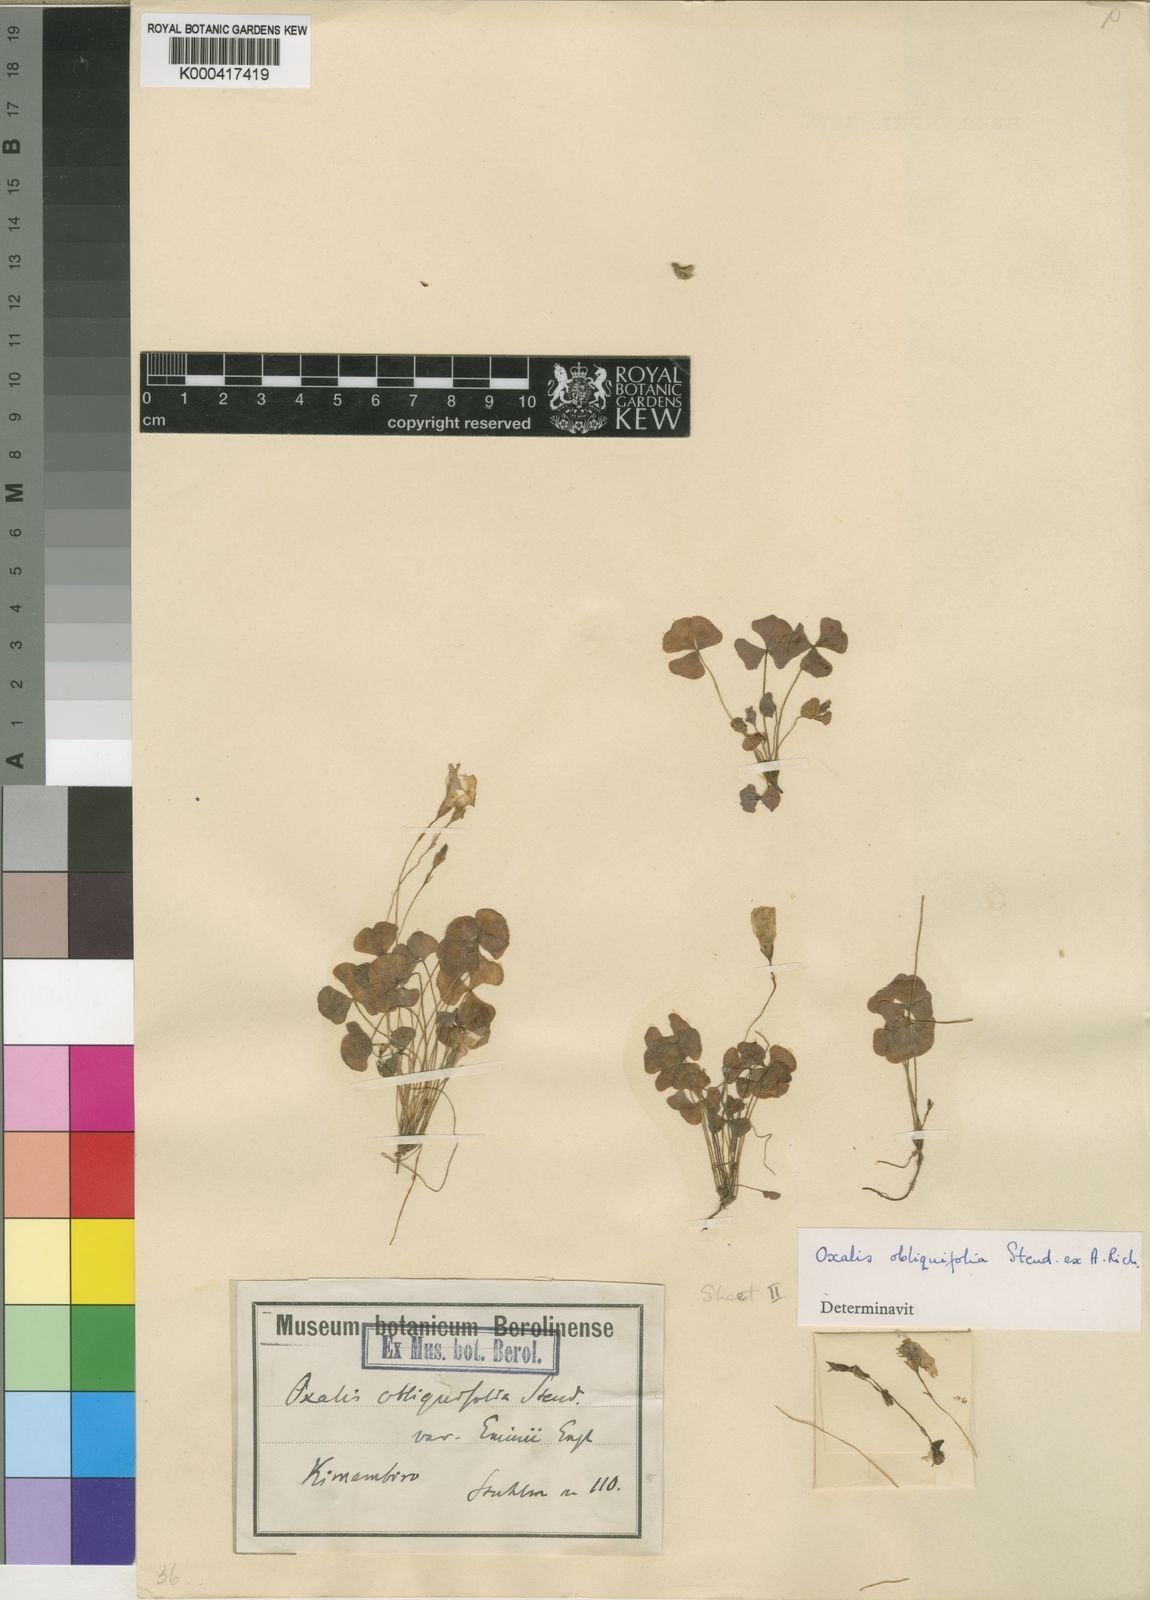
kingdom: Plantae
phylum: Tracheophyta
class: Magnoliopsida
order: Oxalidales
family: Oxalidaceae
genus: Oxalis
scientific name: Oxalis obliquifolia
